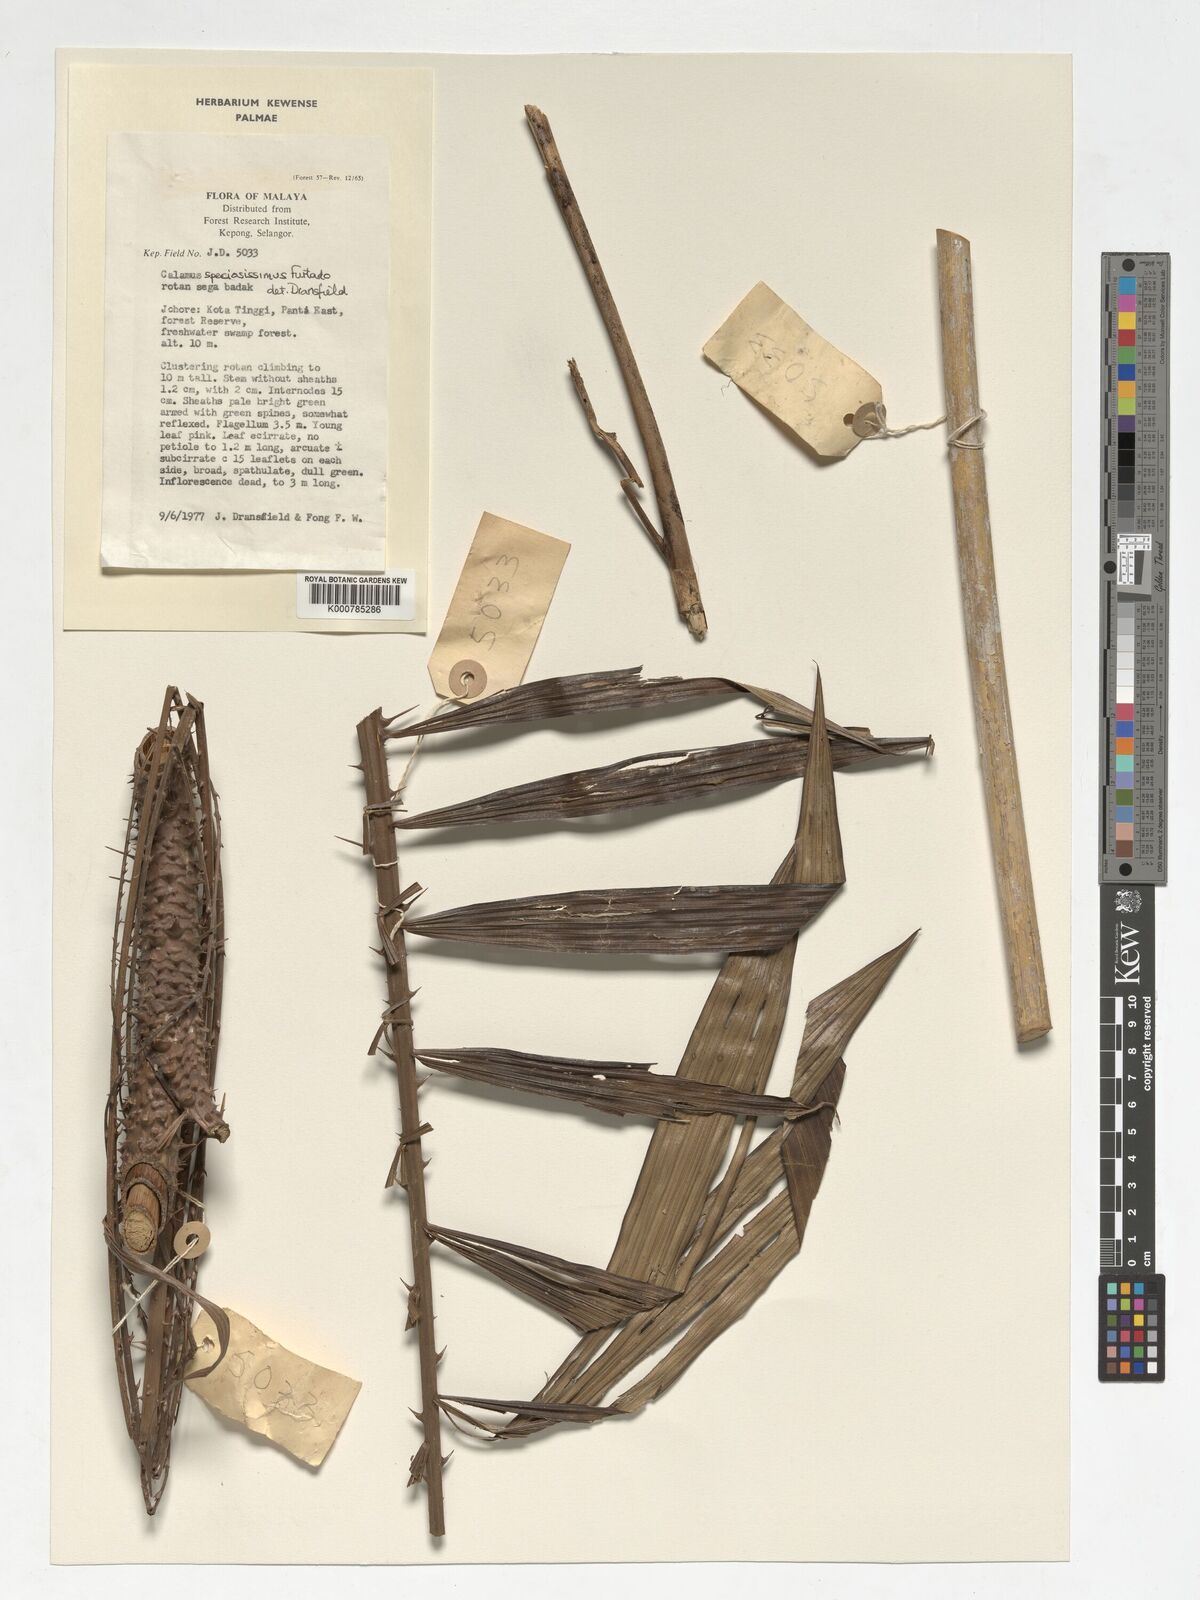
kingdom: Plantae
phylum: Tracheophyta
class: Liliopsida
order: Arecales
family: Arecaceae
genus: Calamus
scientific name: Calamus micranthus
